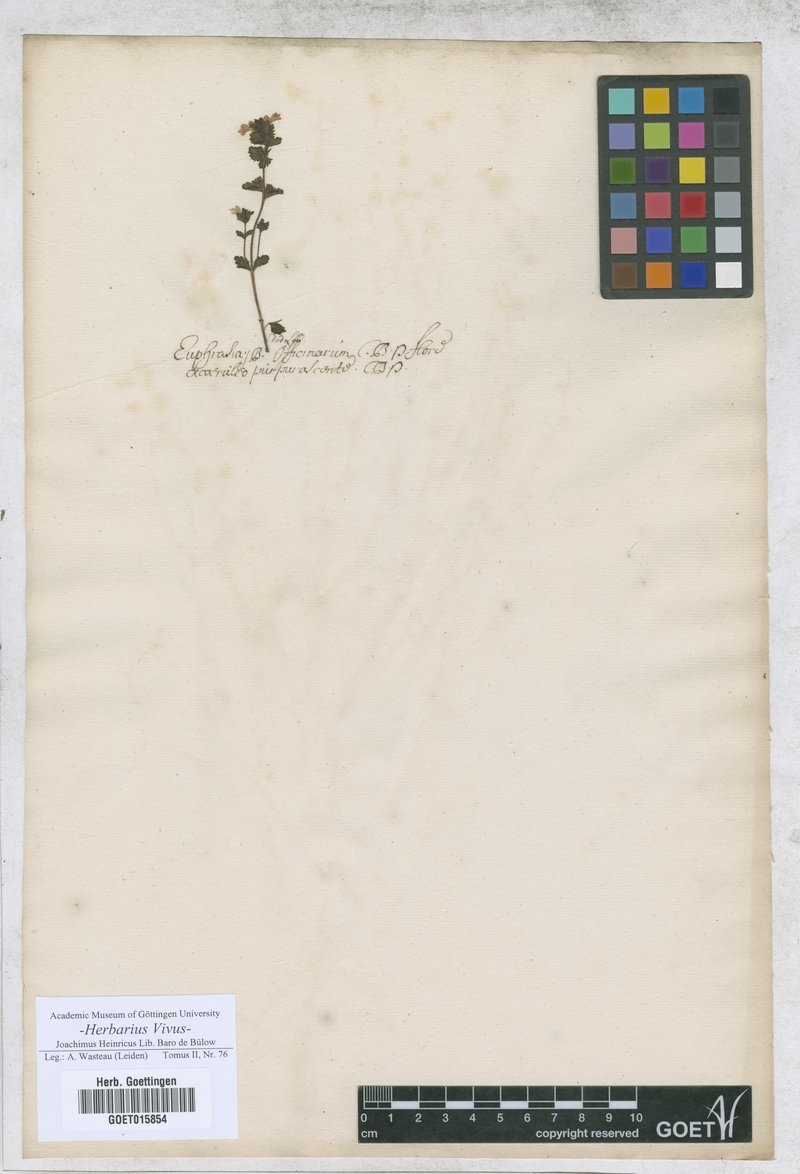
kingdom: Plantae
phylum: Tracheophyta
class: Magnoliopsida
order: Lamiales
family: Orobanchaceae
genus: Euphrasia
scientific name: Euphrasia officinalis
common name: Eyebright
